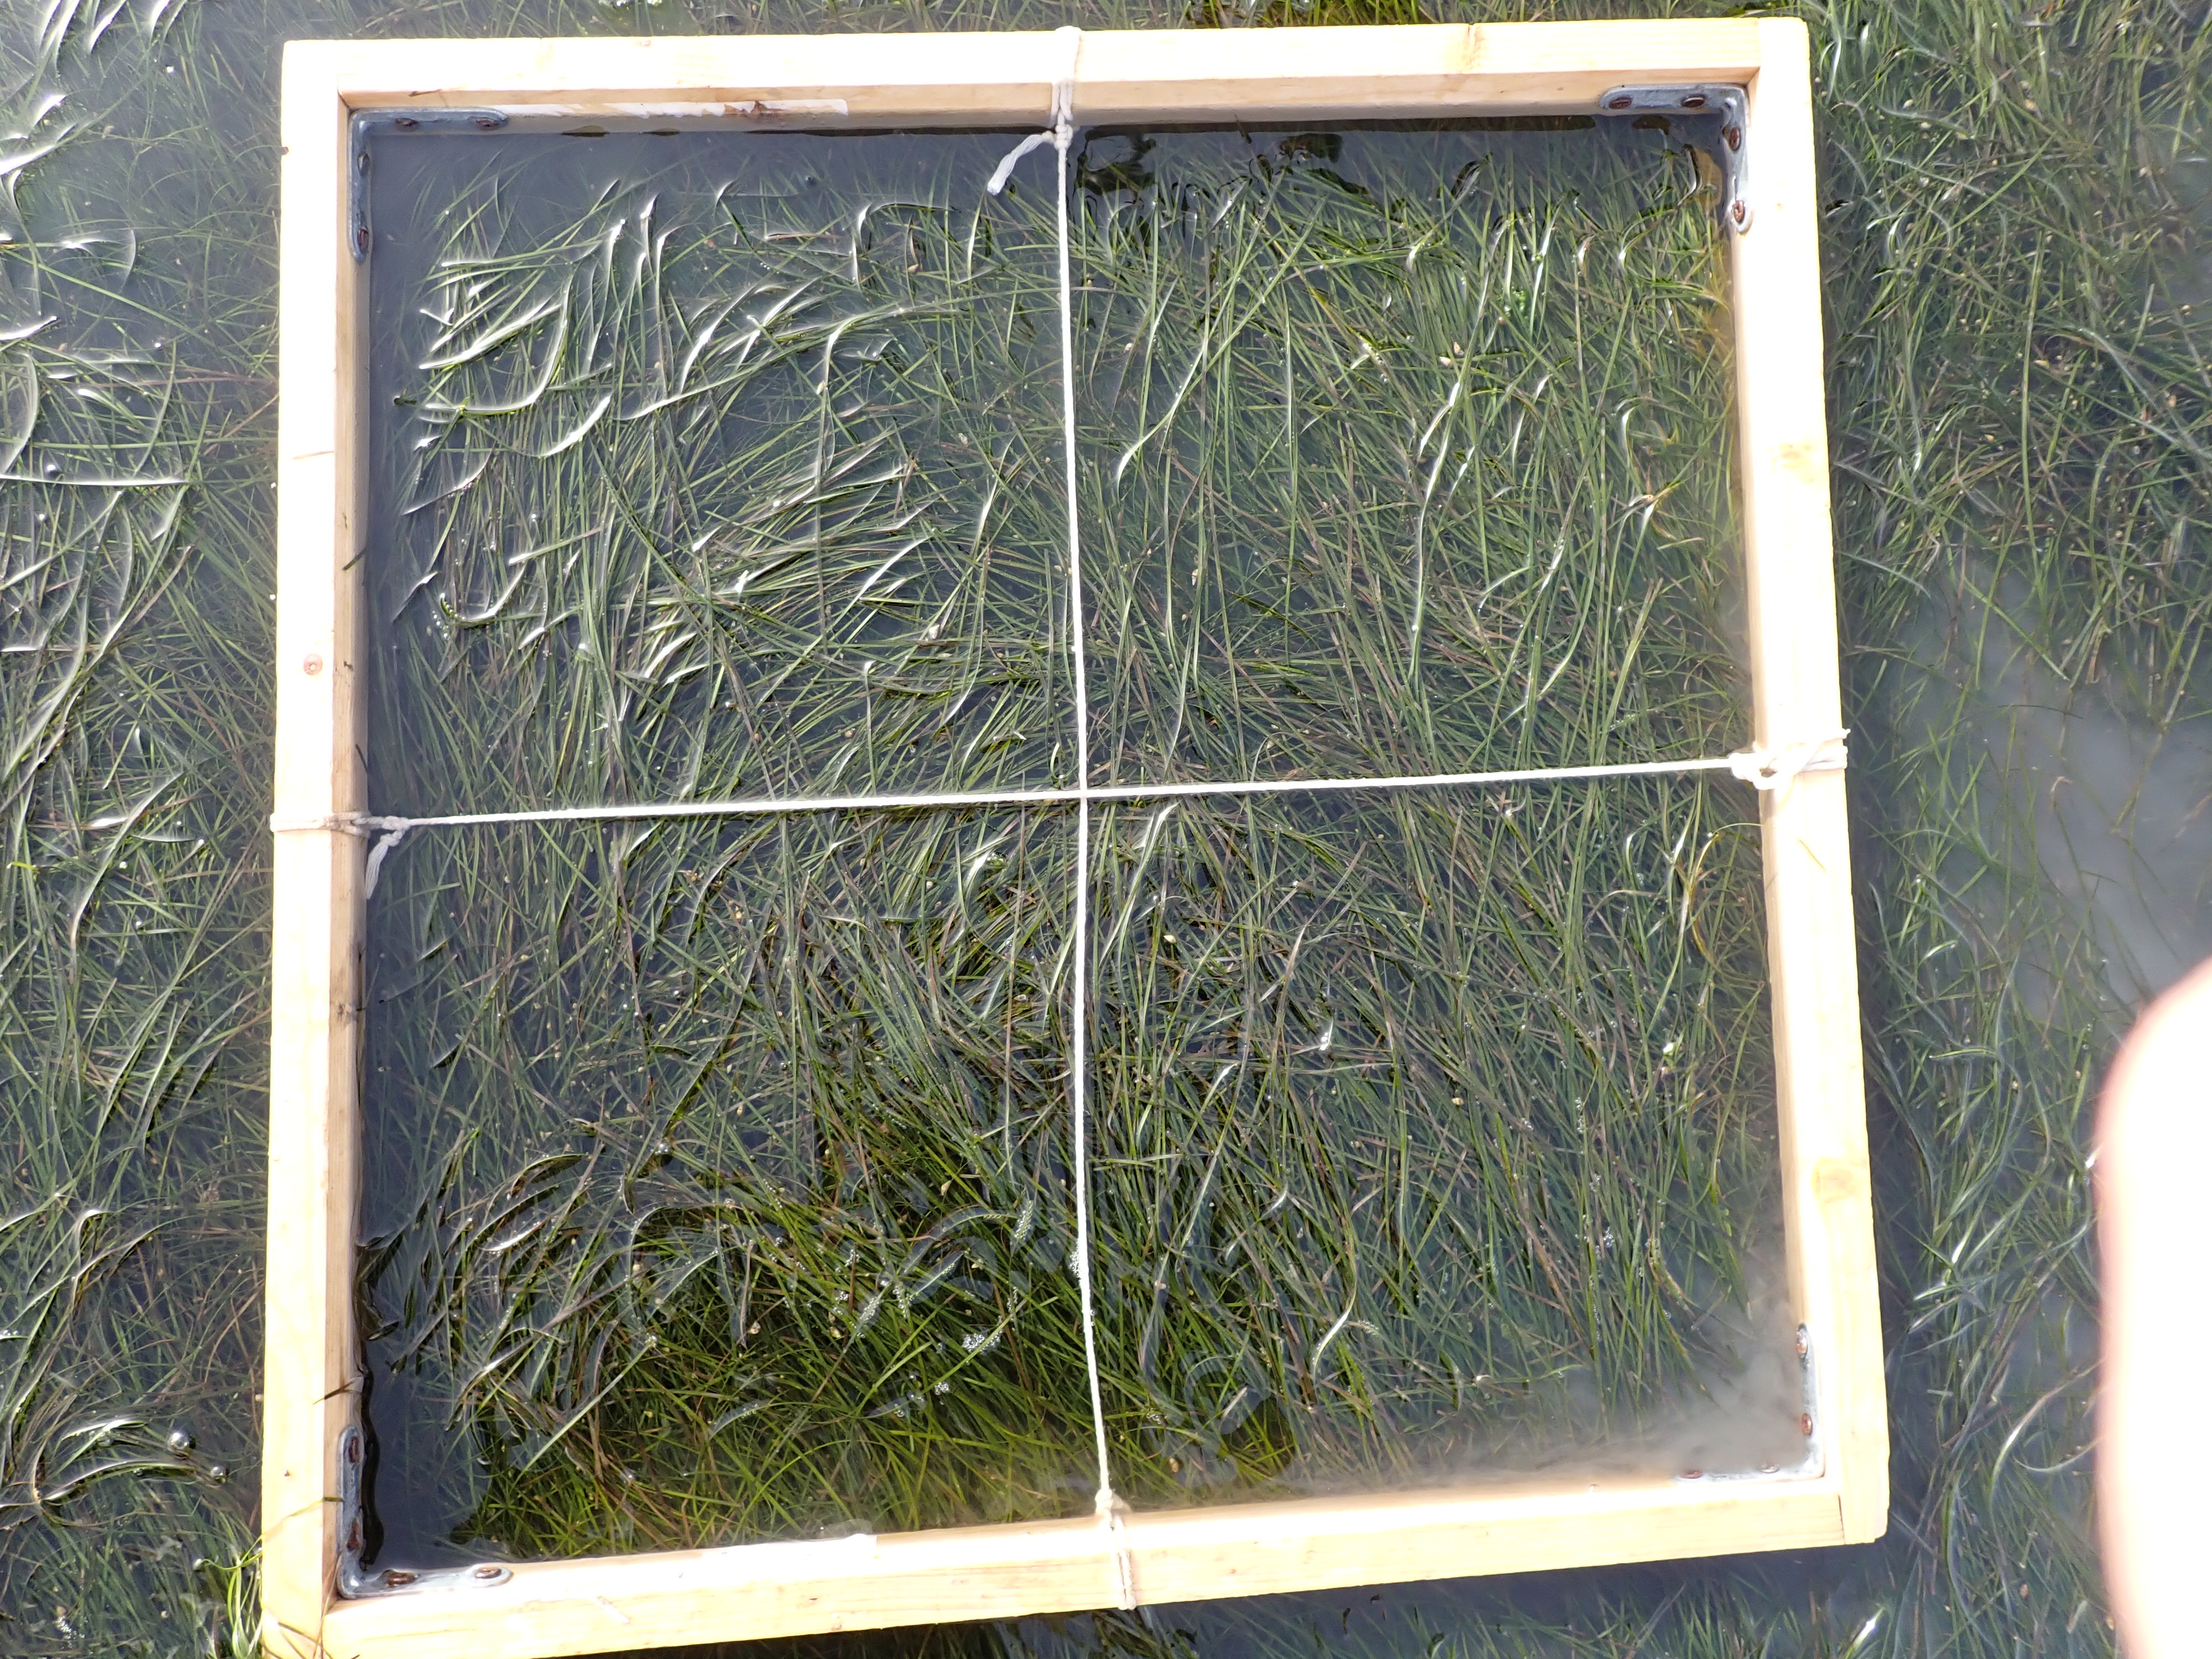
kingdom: Plantae
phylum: Tracheophyta
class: Liliopsida
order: Alismatales
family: Zosteraceae
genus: Zostera
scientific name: Zostera noltii
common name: Dwarf eelgrass
